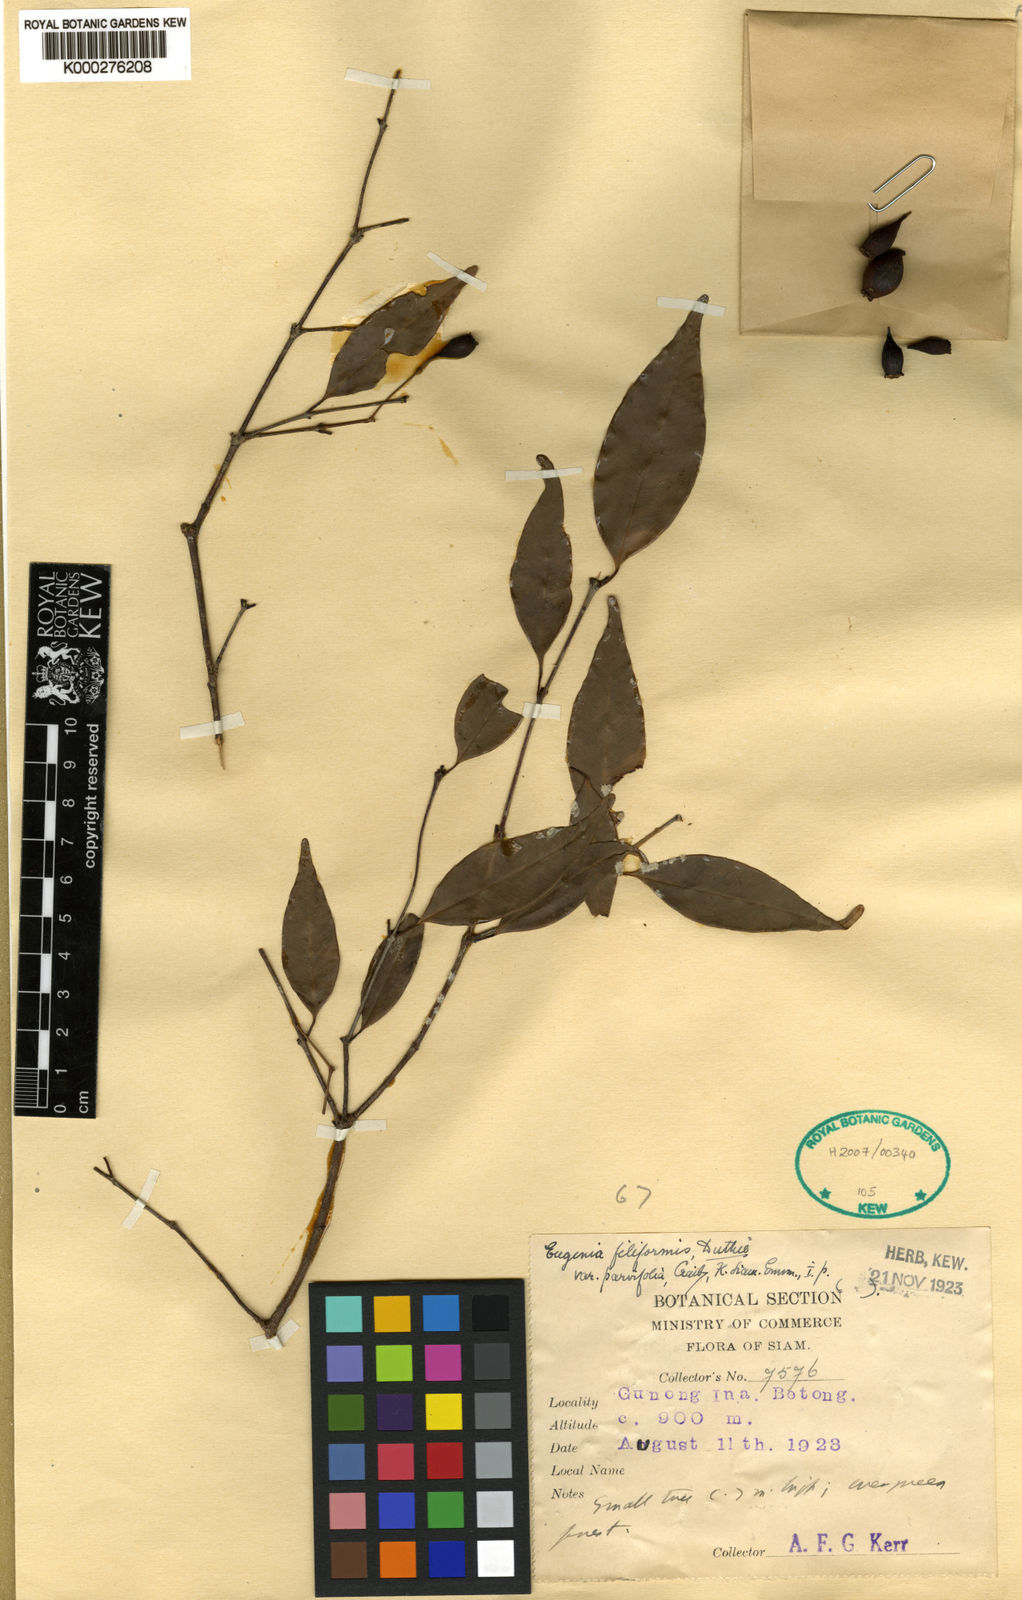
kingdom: Plantae
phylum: Tracheophyta
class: Magnoliopsida
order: Myrtales
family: Myrtaceae
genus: Syzygium
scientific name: Syzygium urophyllum
